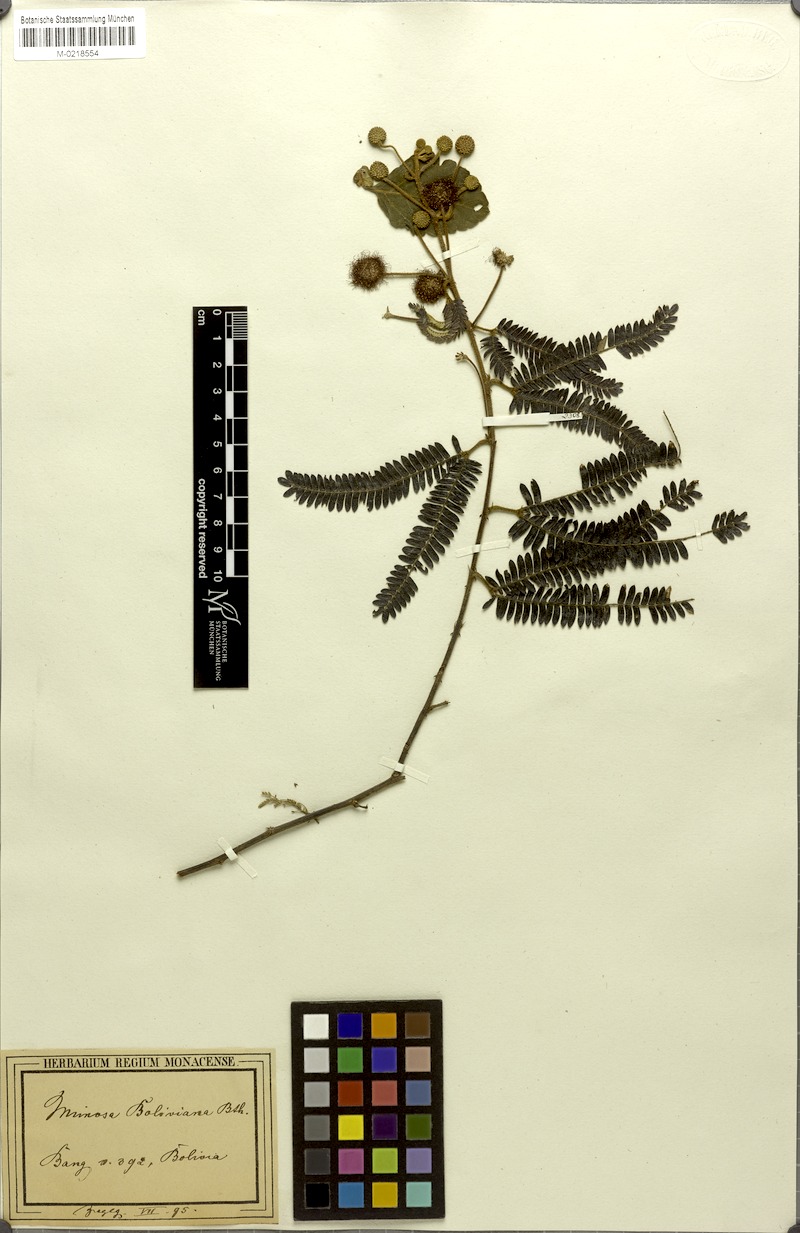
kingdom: Plantae
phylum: Tracheophyta
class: Magnoliopsida
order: Fabales
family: Fabaceae
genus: Mimosa
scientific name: Mimosa boliviana
